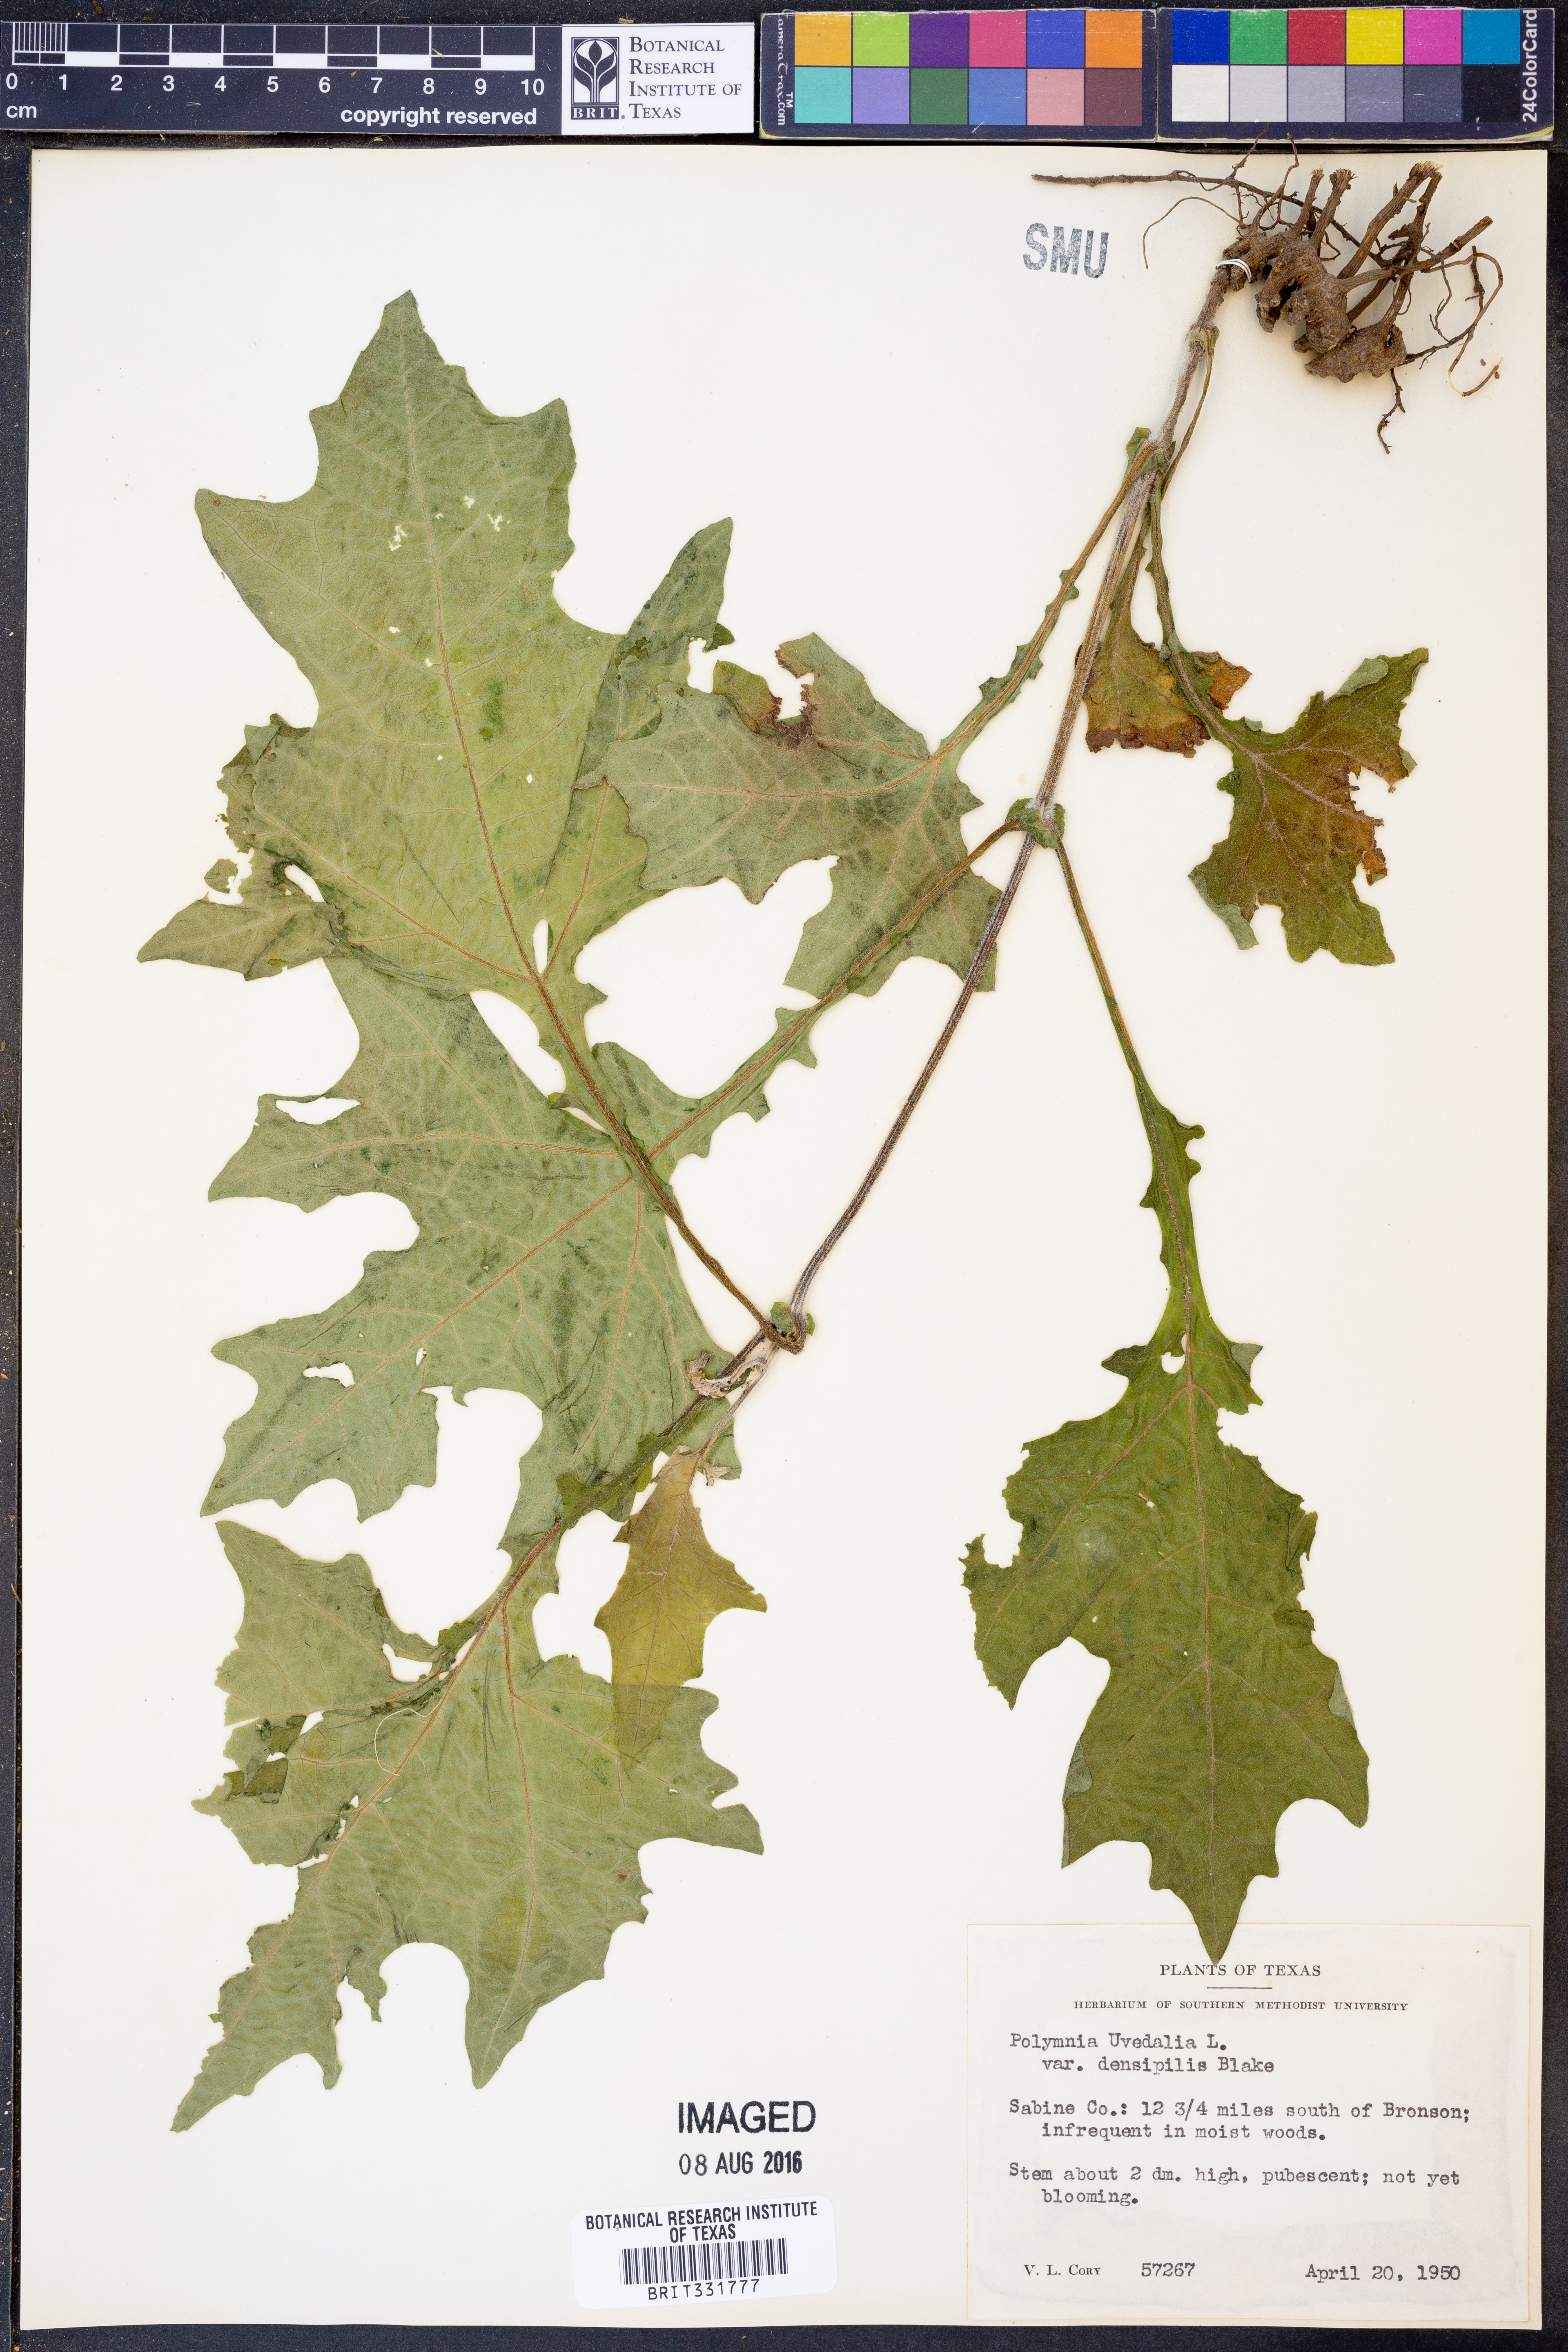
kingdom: Plantae
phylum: Tracheophyta
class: Magnoliopsida
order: Asterales
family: Asteraceae
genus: Smallanthus
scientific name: Smallanthus uvedalia
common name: Bear's-foot
